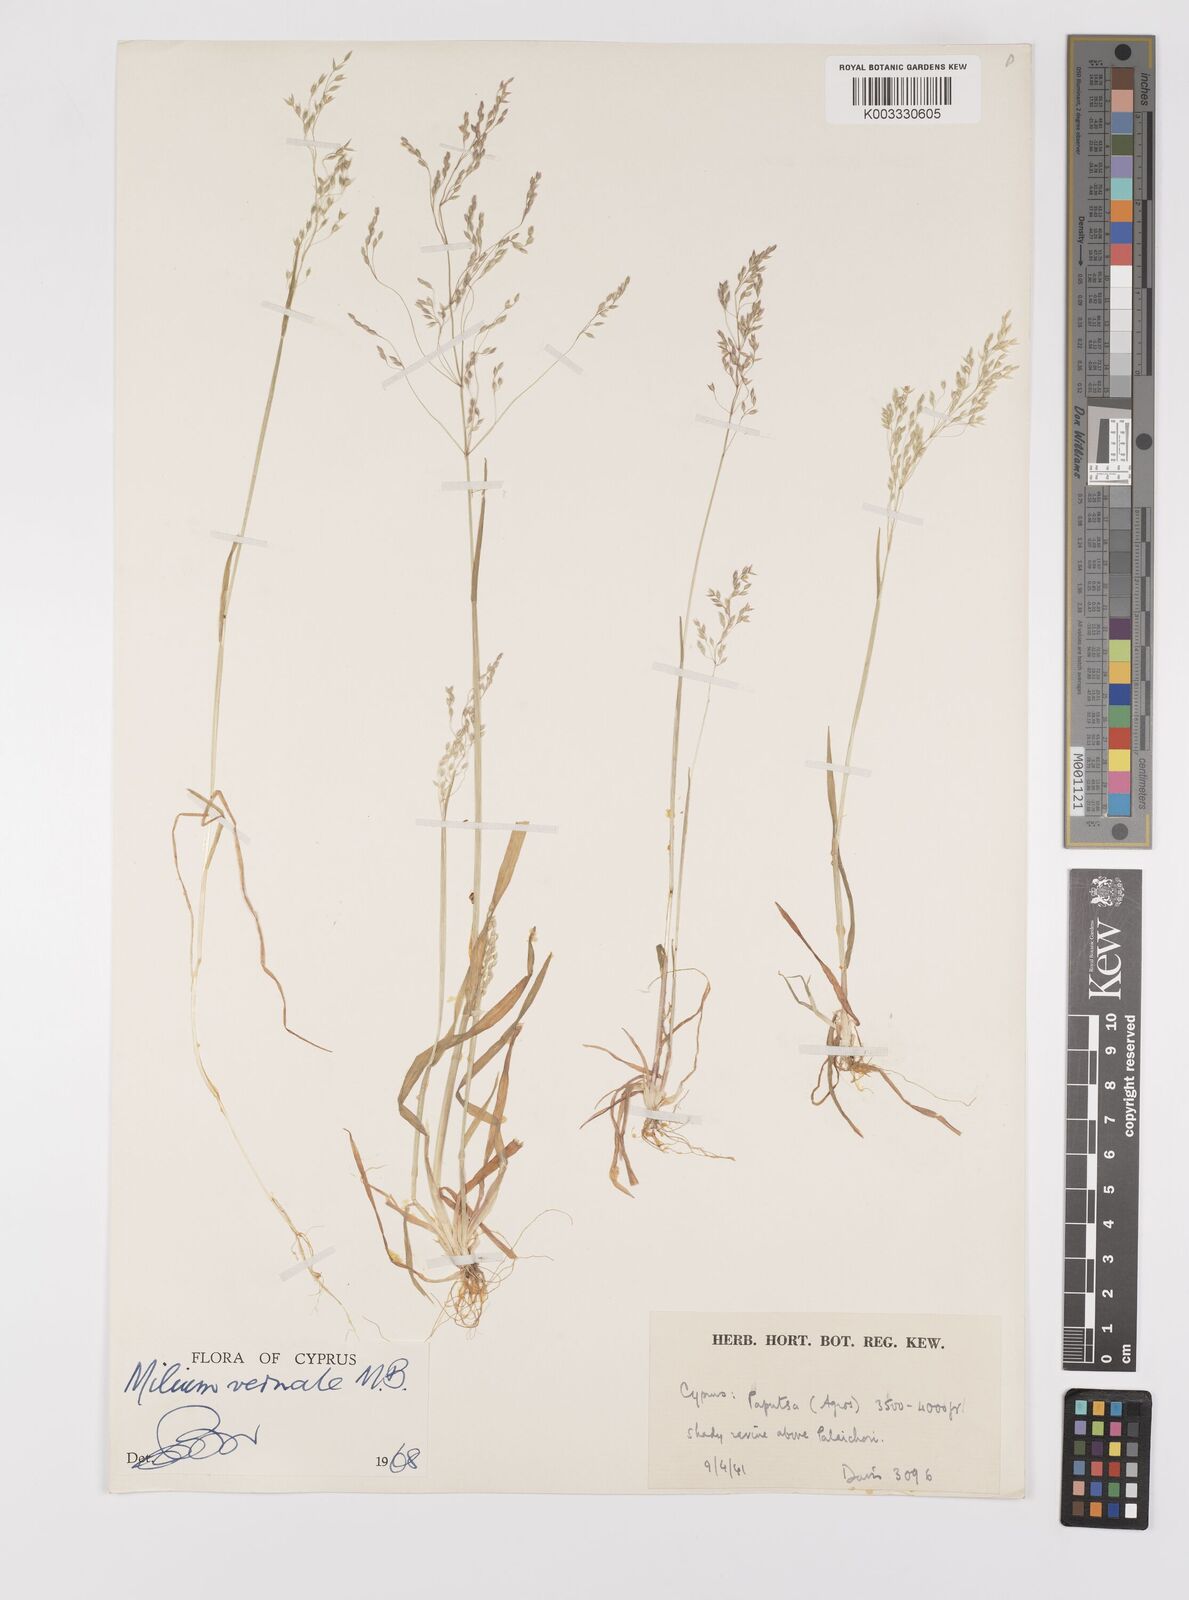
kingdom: Plantae
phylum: Tracheophyta
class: Liliopsida
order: Poales
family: Poaceae
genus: Milium
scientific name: Milium vernale
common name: Early millet
